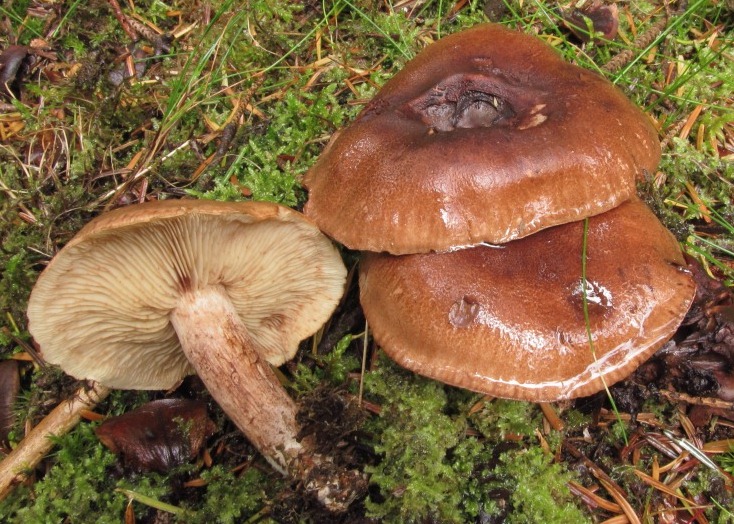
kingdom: Fungi
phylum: Basidiomycota
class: Agaricomycetes
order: Agaricales
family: Tricholomataceae
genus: Tricholoma
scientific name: Tricholoma fulvum
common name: birke-ridderhat
